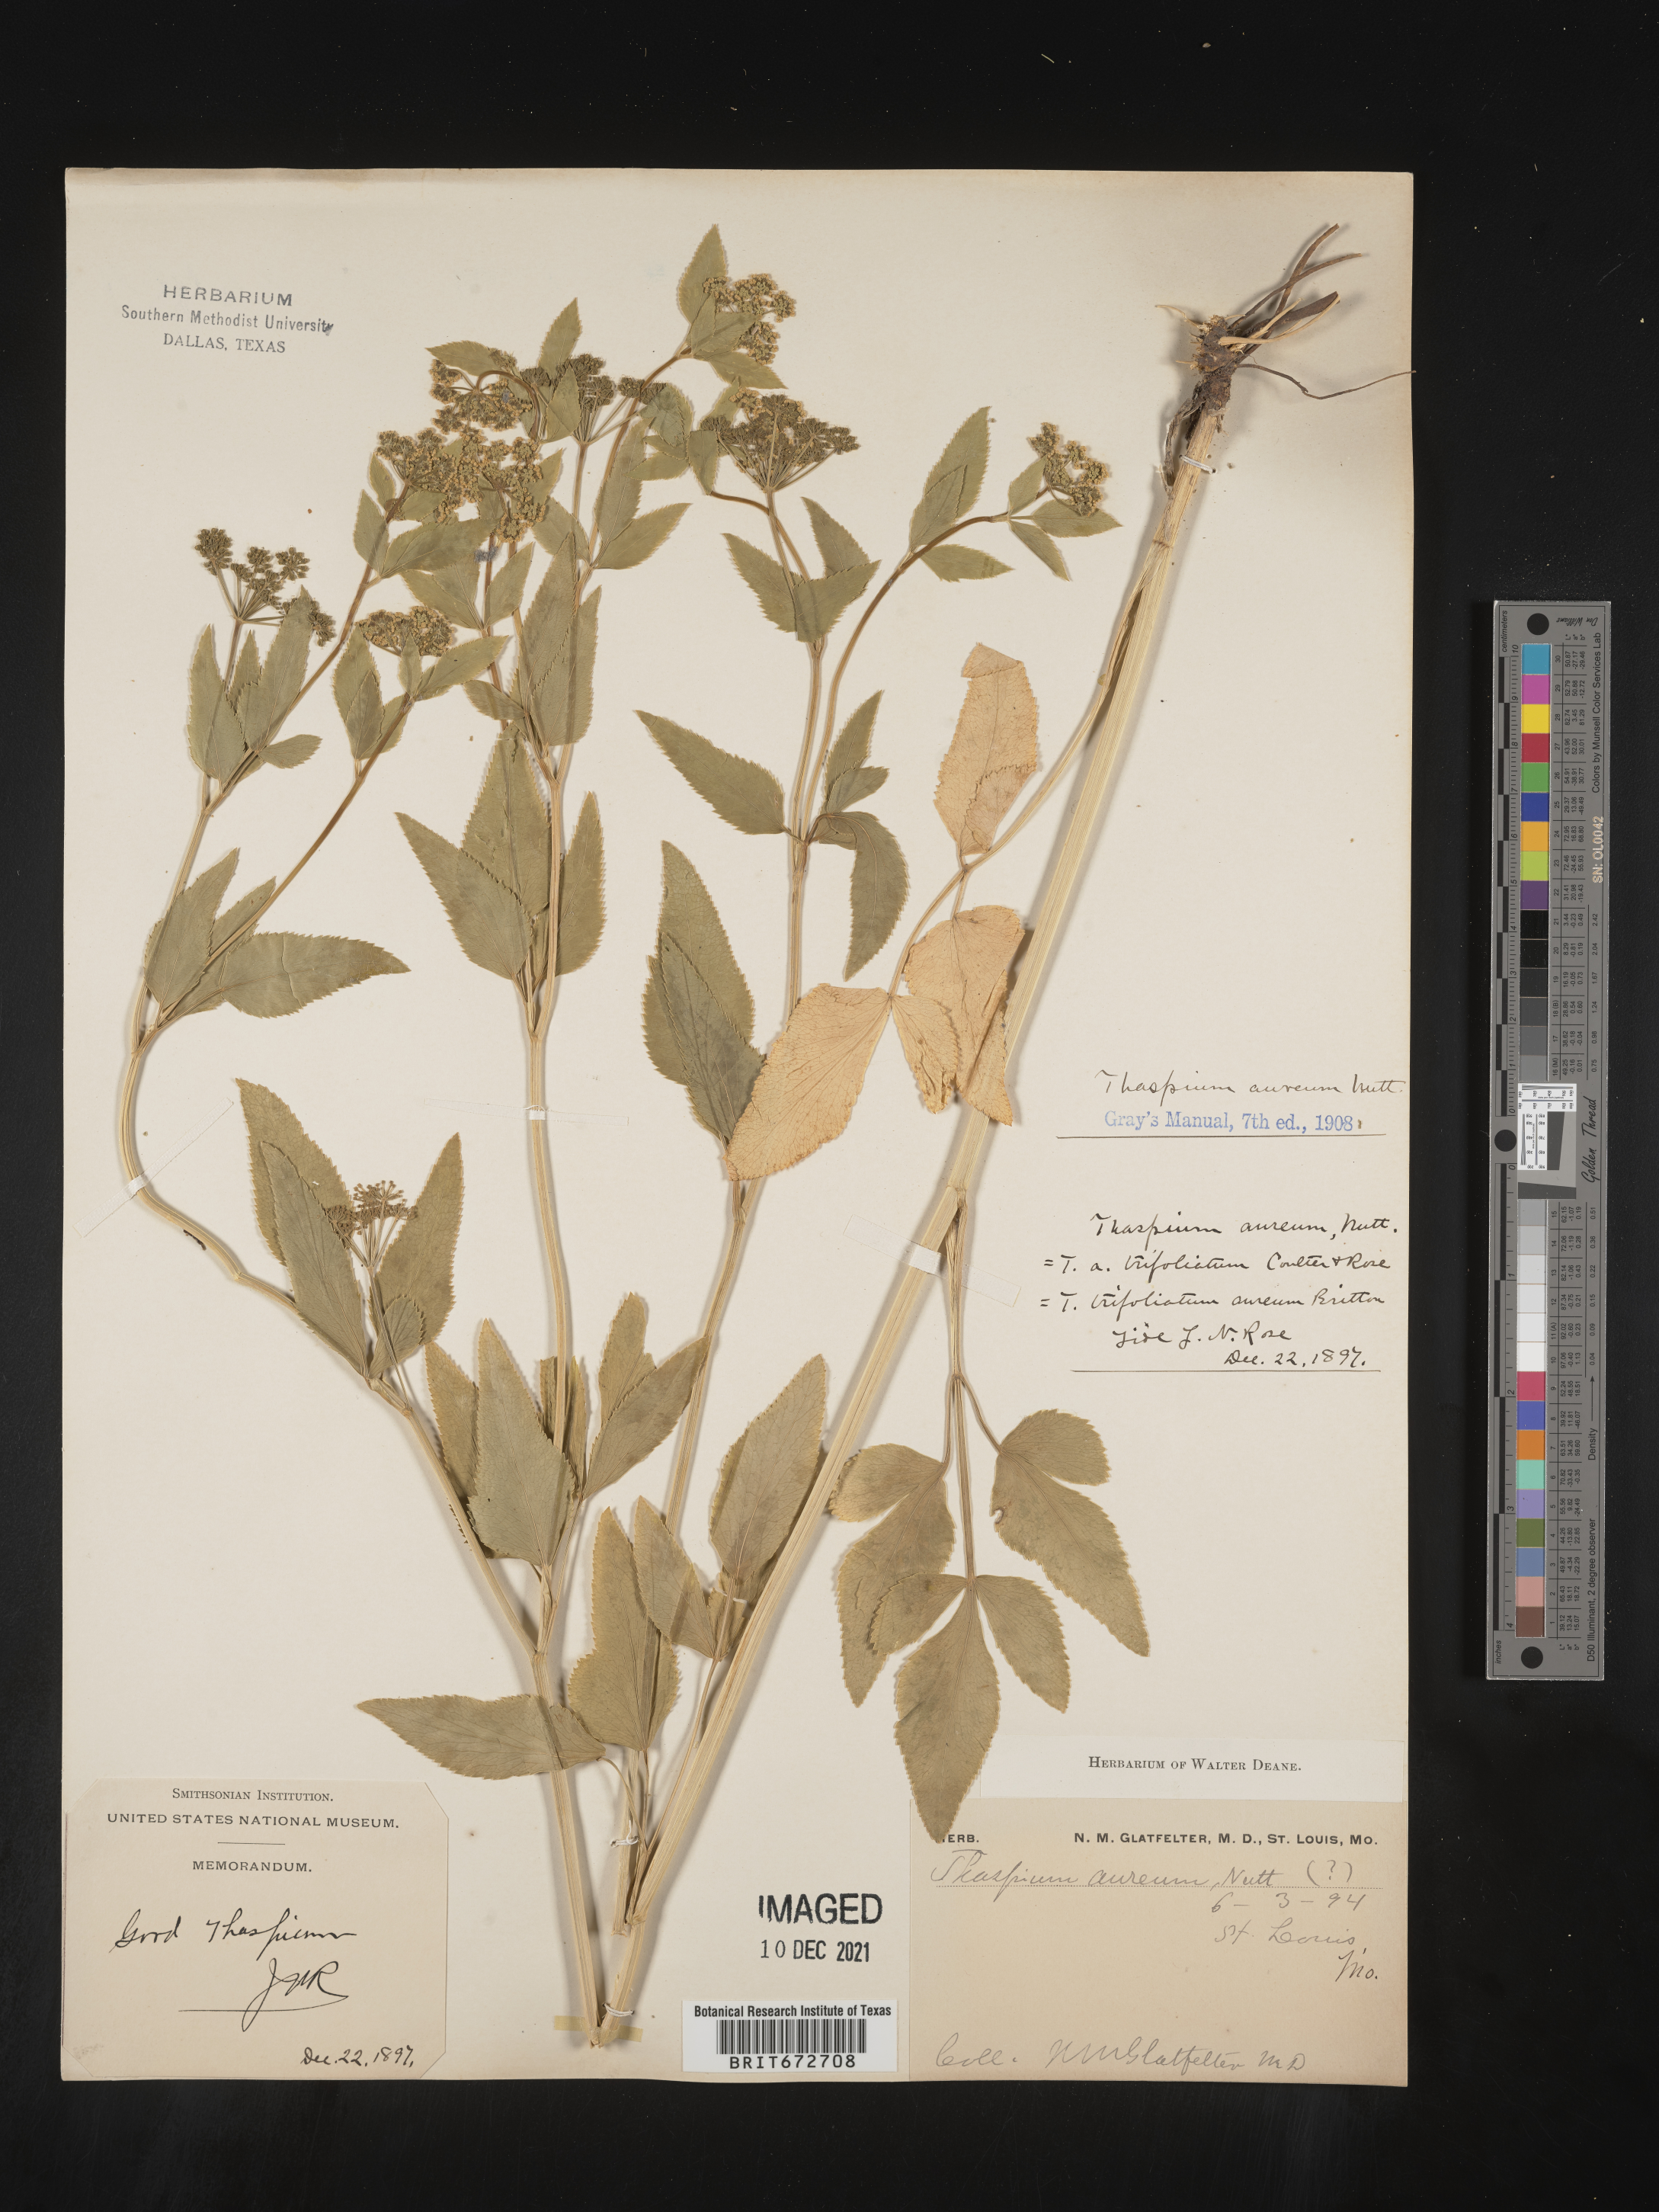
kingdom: Plantae
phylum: Tracheophyta
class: Magnoliopsida
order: Apiales
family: Apiaceae
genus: Thaspium
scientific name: Thaspium
